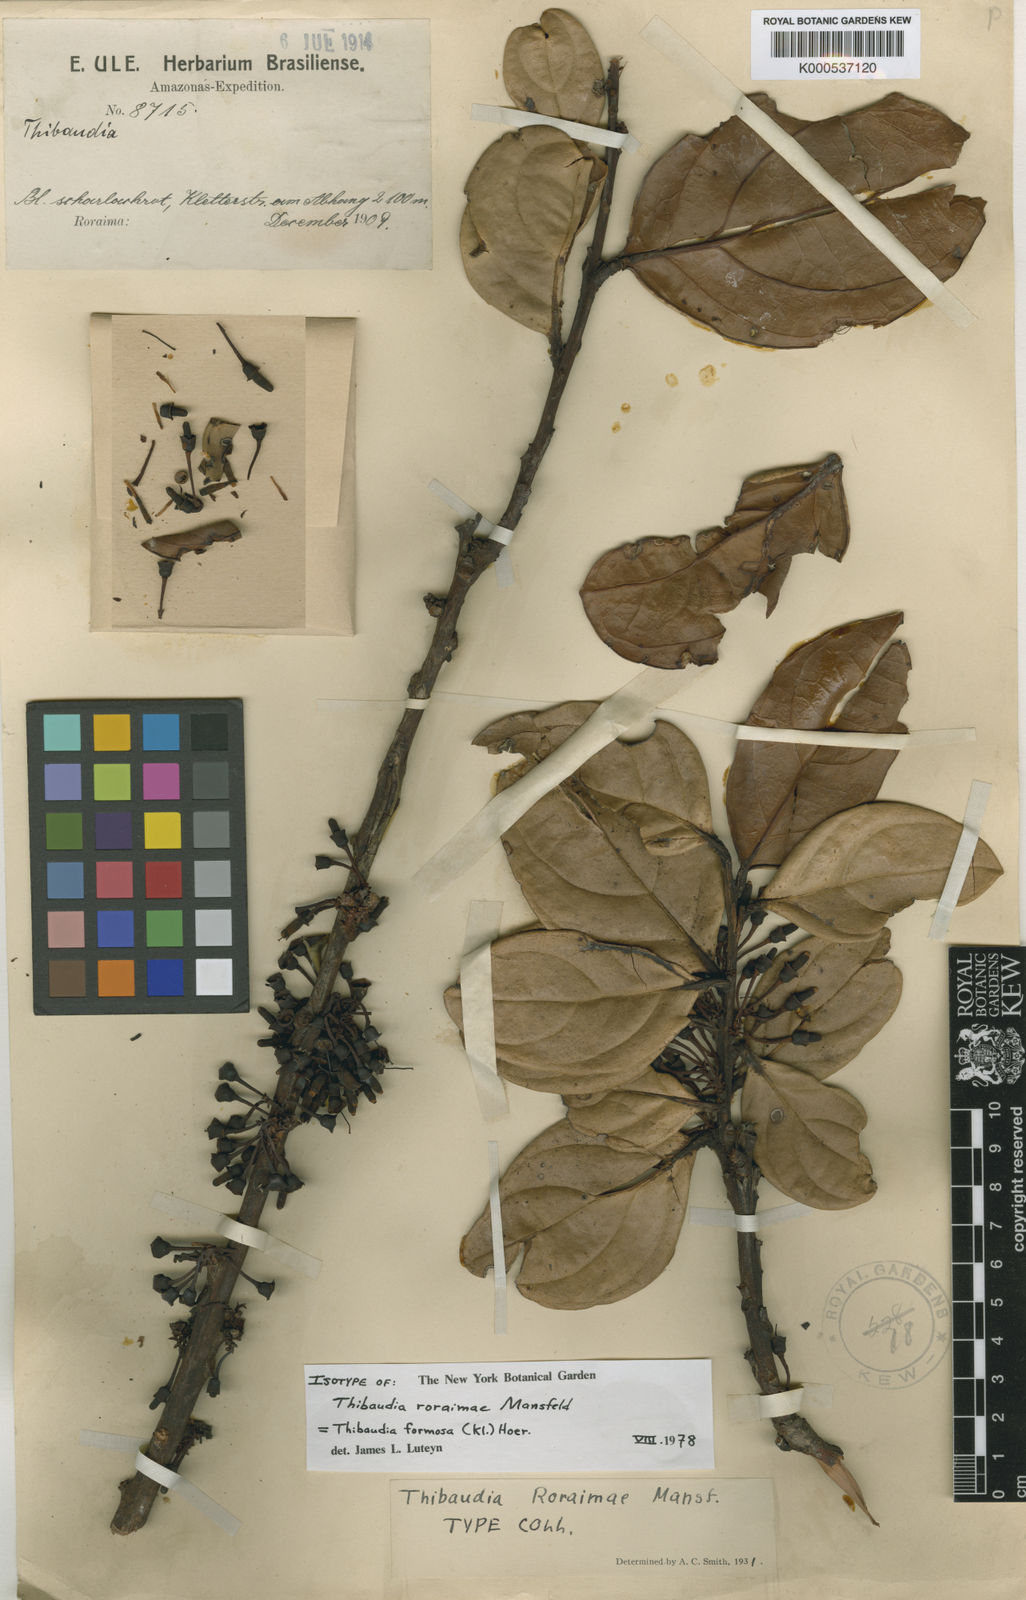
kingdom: Plantae
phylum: Tracheophyta
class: Magnoliopsida
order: Ericales
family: Ericaceae
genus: Thibaudia
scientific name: Thibaudia formosa
